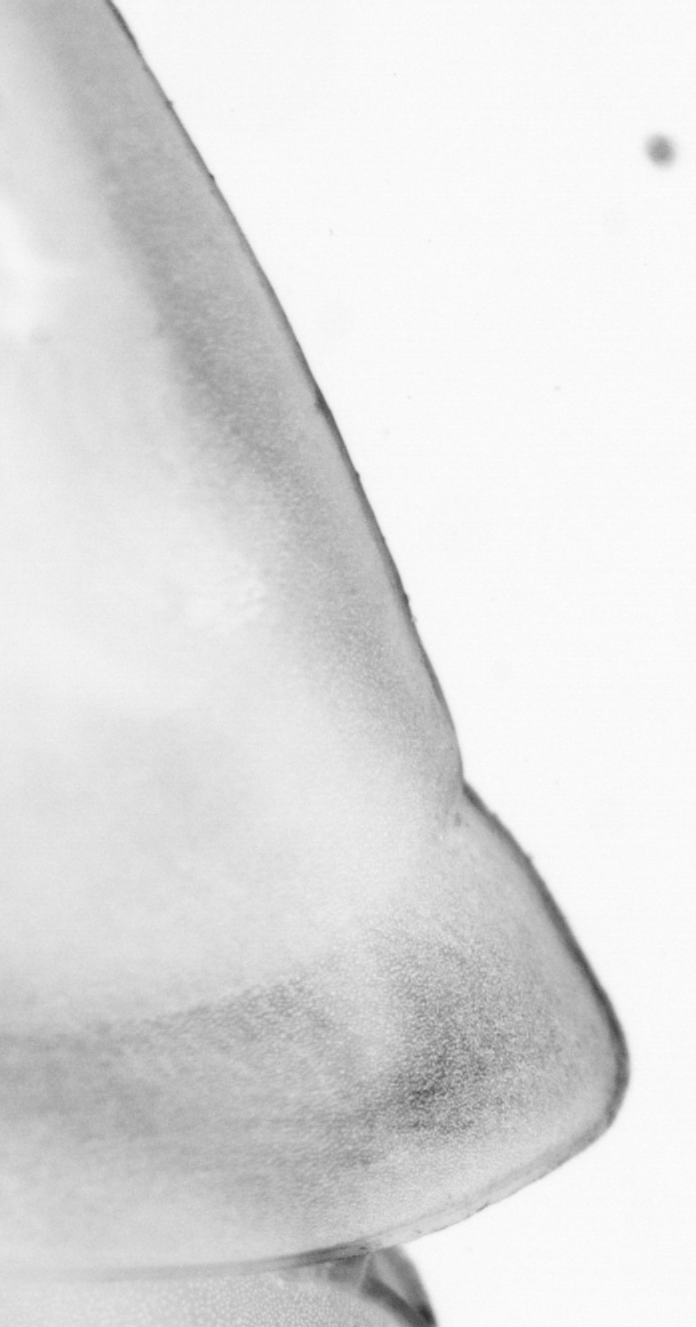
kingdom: Animalia
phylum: Chordata
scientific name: Chordata
